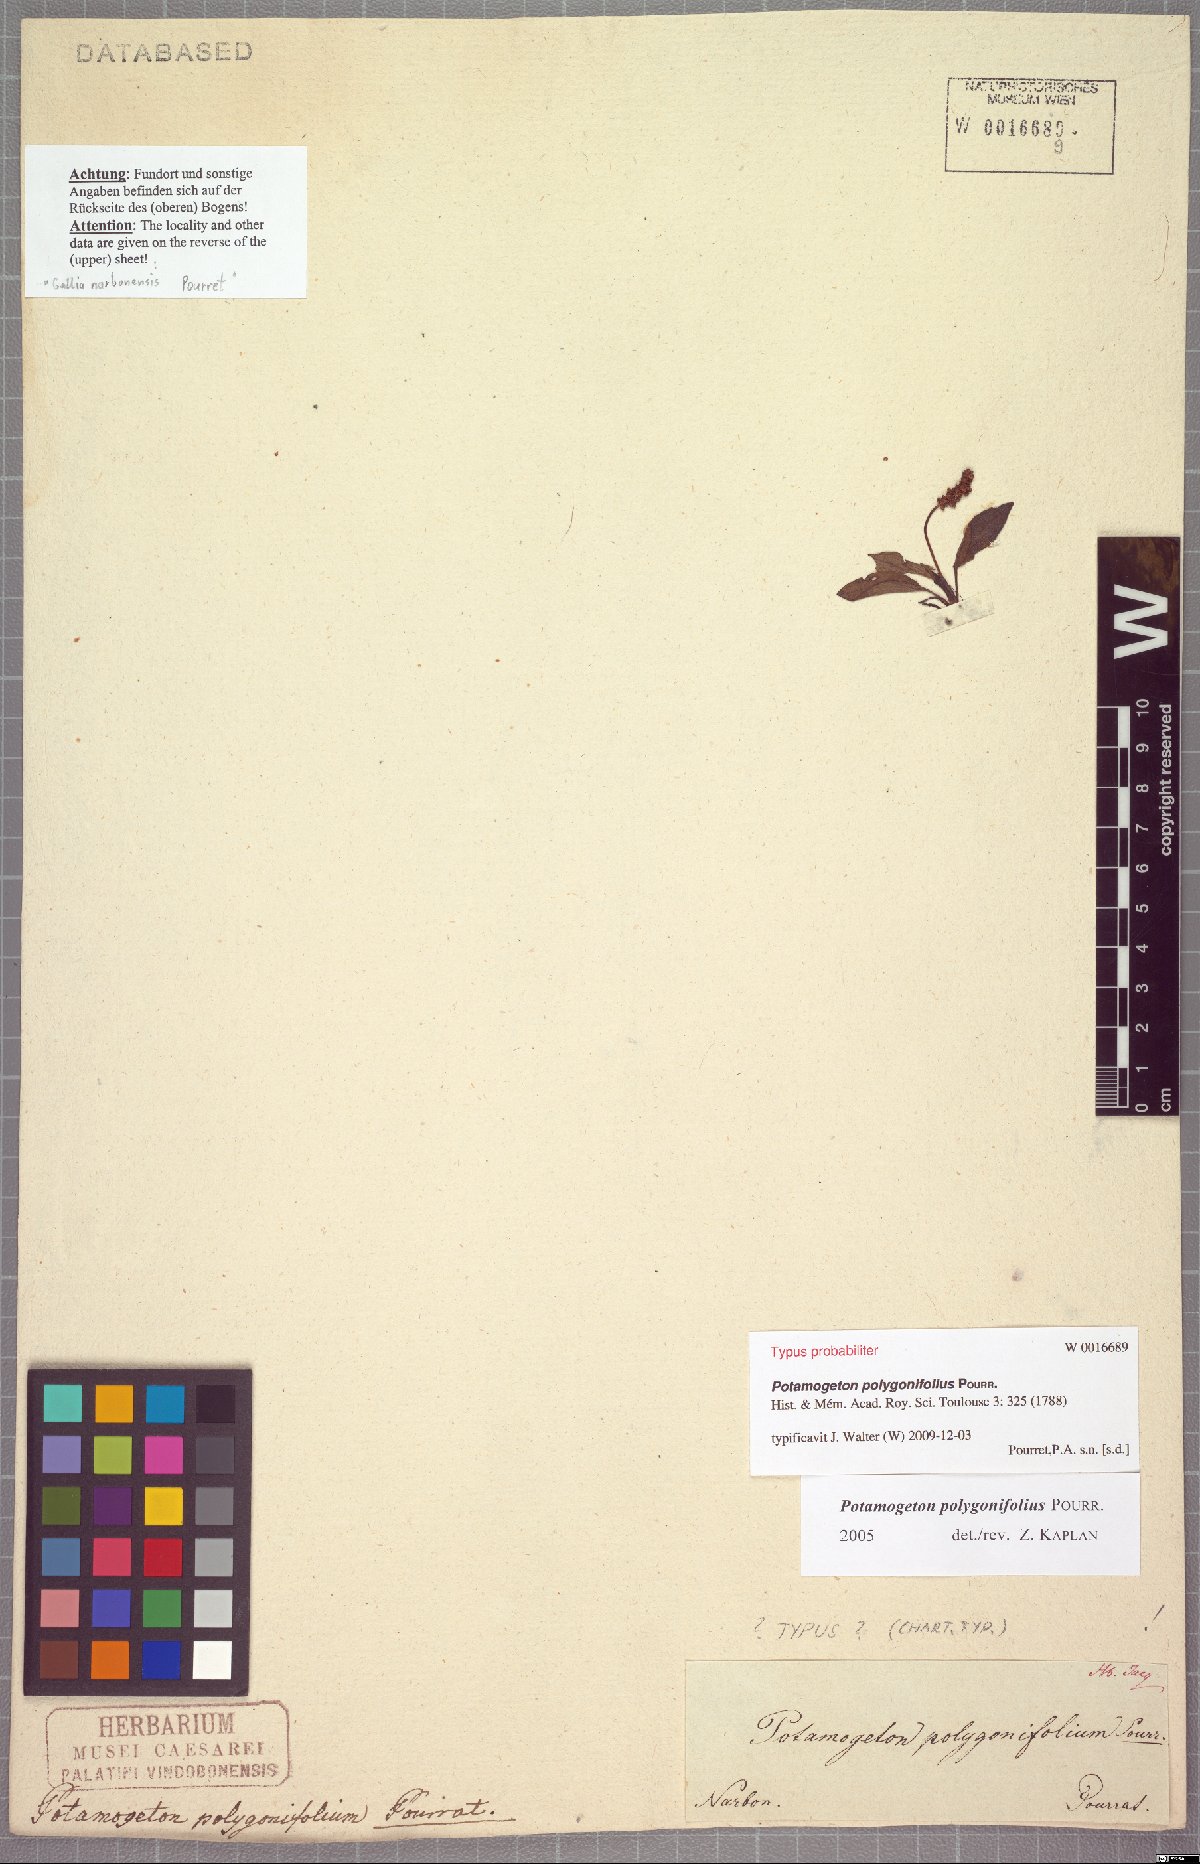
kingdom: Plantae
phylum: Tracheophyta
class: Liliopsida
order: Alismatales
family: Potamogetonaceae
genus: Potamogeton
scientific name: Potamogeton polygonifolius
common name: Bog pondweed
